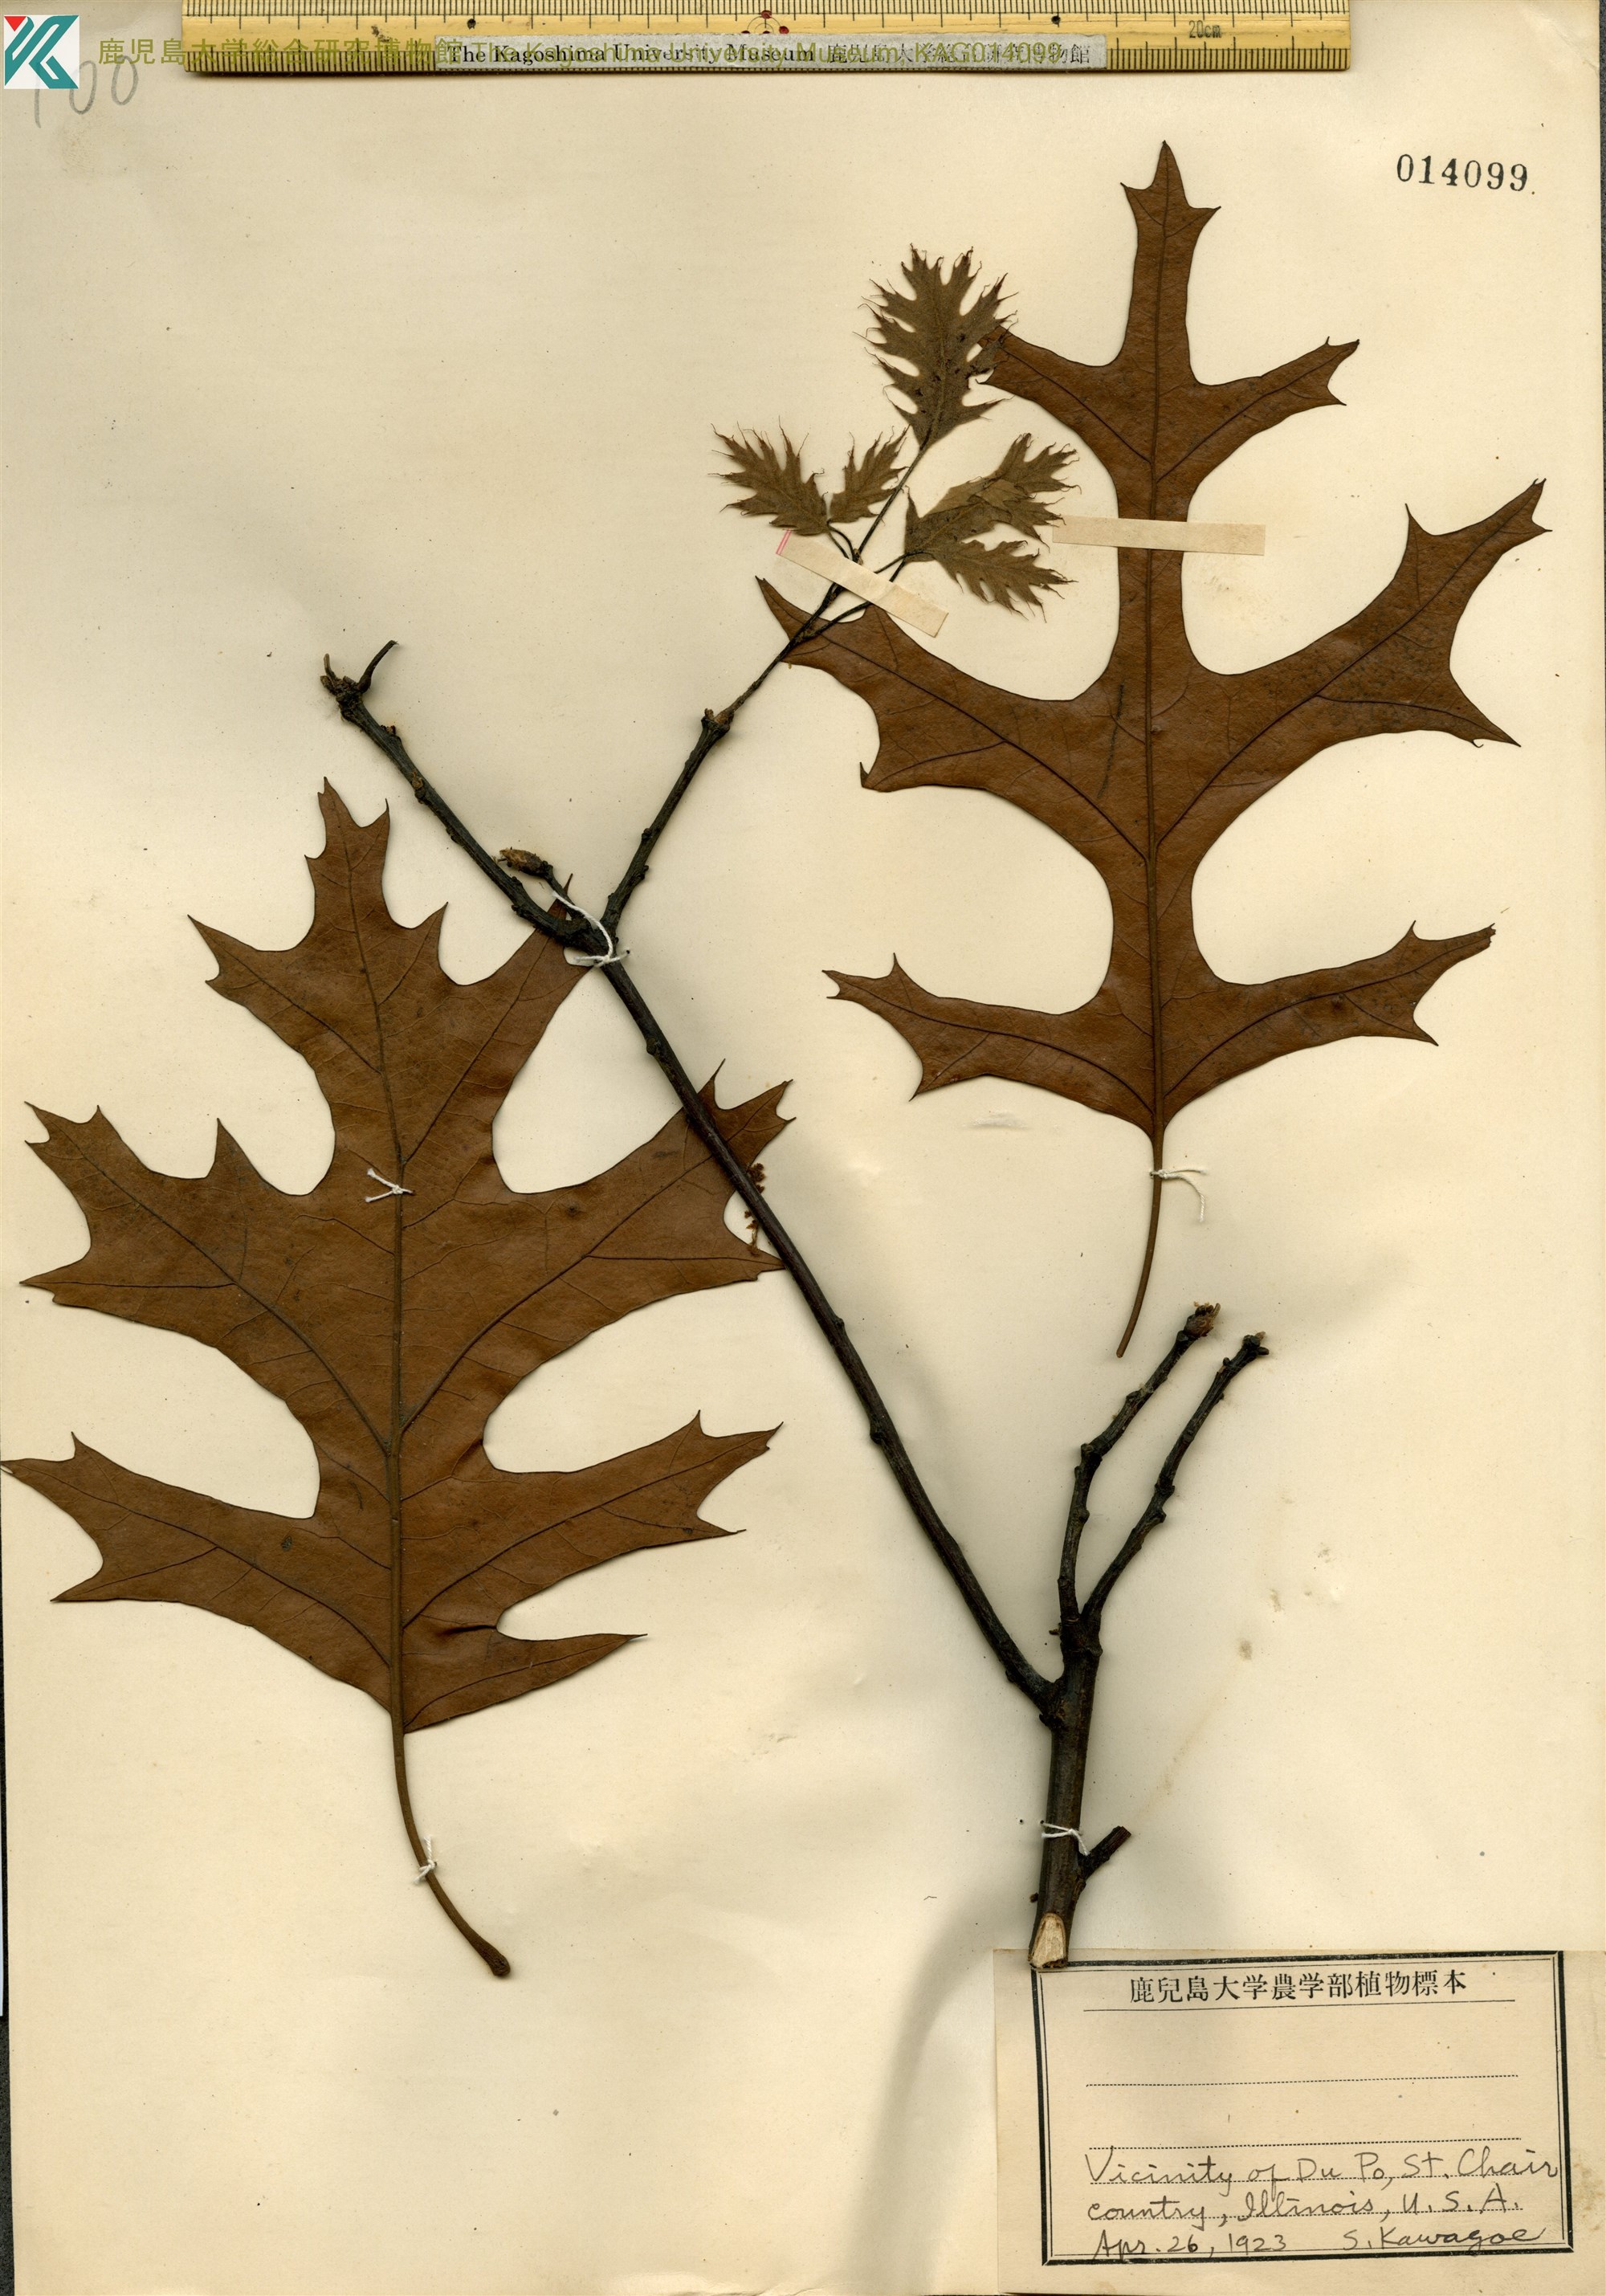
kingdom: Plantae
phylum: Tracheophyta
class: Magnoliopsida
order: Fagales
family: Fagaceae
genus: Quercus
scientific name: Quercus palustris
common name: Pin oak
